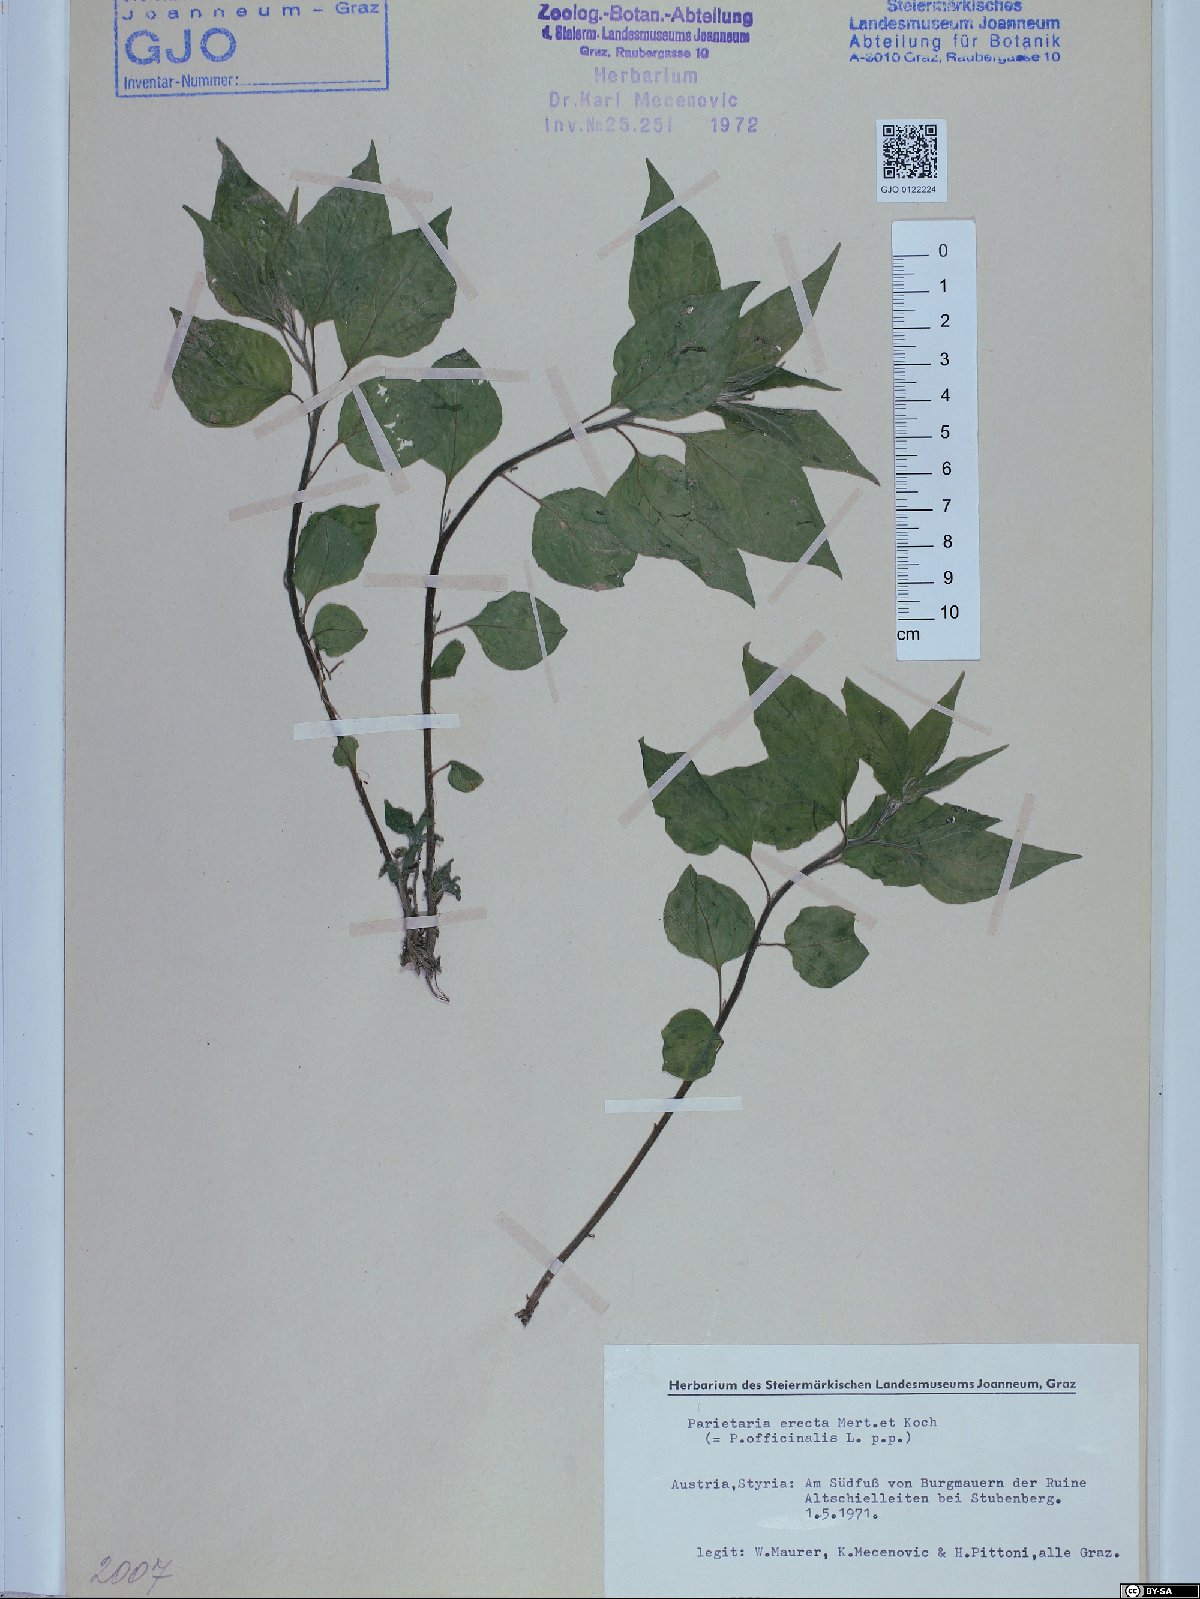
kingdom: Plantae
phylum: Tracheophyta
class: Magnoliopsida
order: Rosales
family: Urticaceae
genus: Parietaria
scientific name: Parietaria officinalis
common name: Eastern pellitory-of-the-wall
